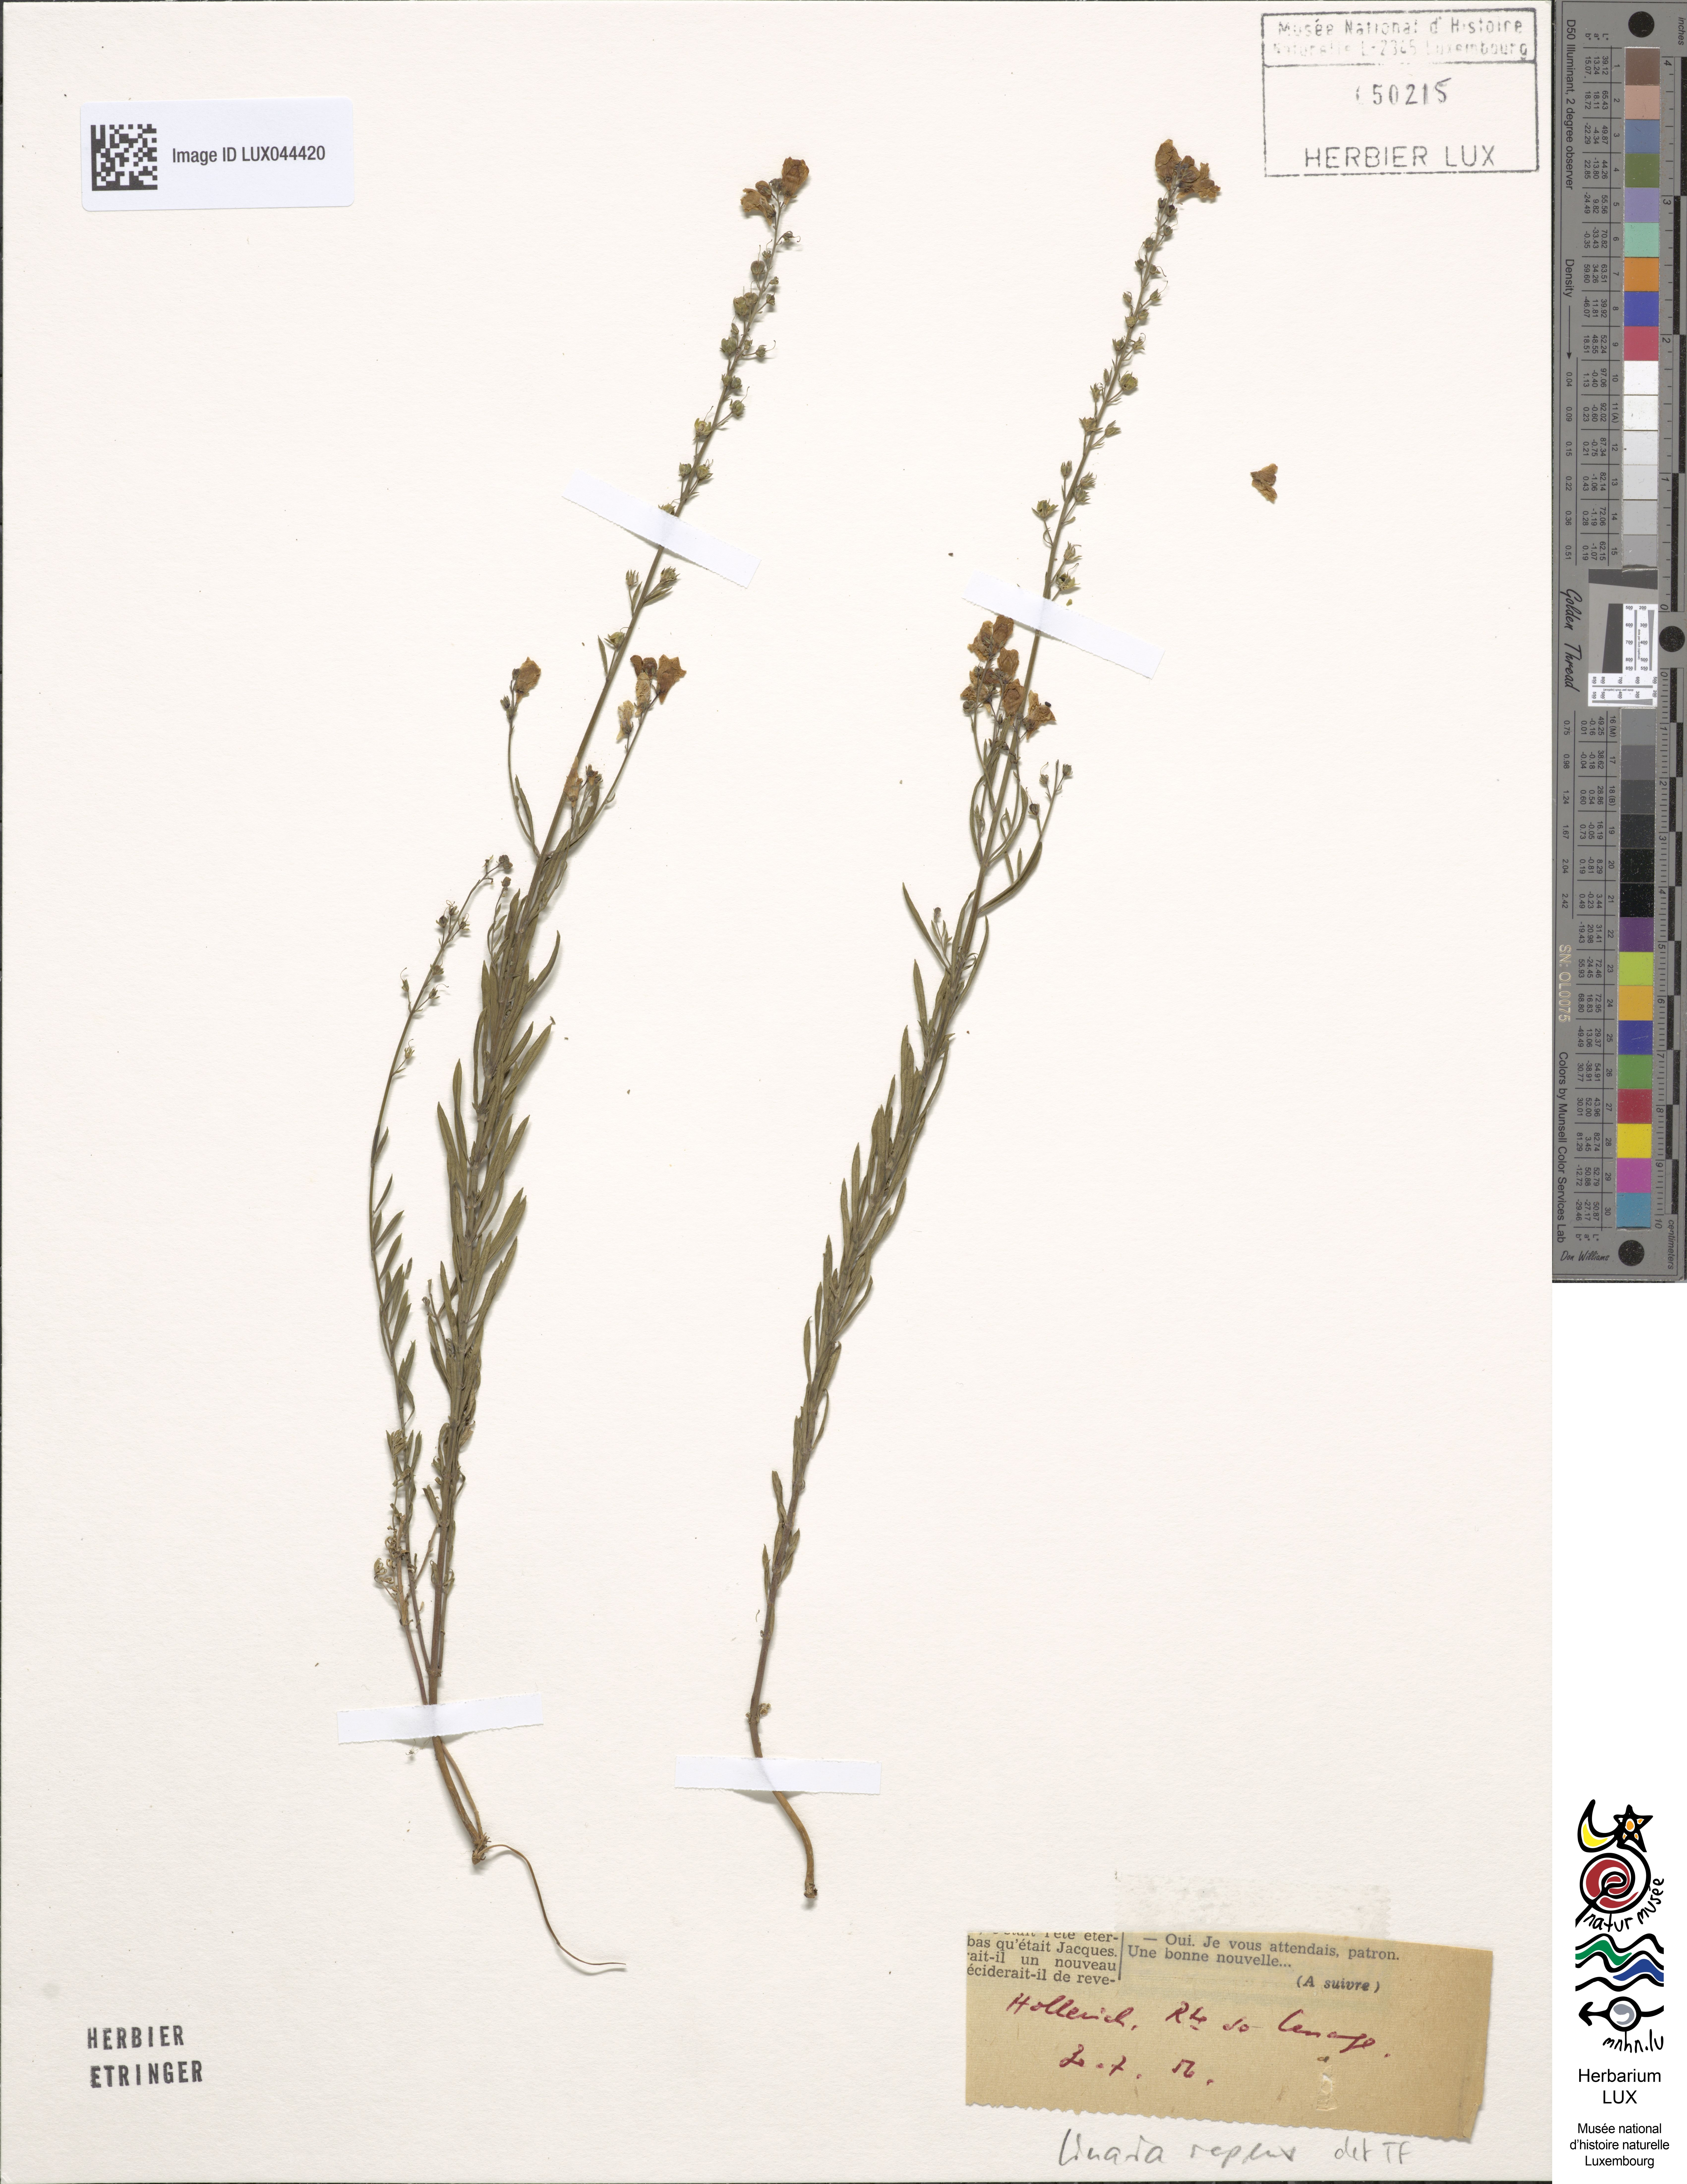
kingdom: Plantae
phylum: Tracheophyta
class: Magnoliopsida
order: Lamiales
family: Plantaginaceae
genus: Linaria
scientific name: Linaria repens
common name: Pale toadflax
